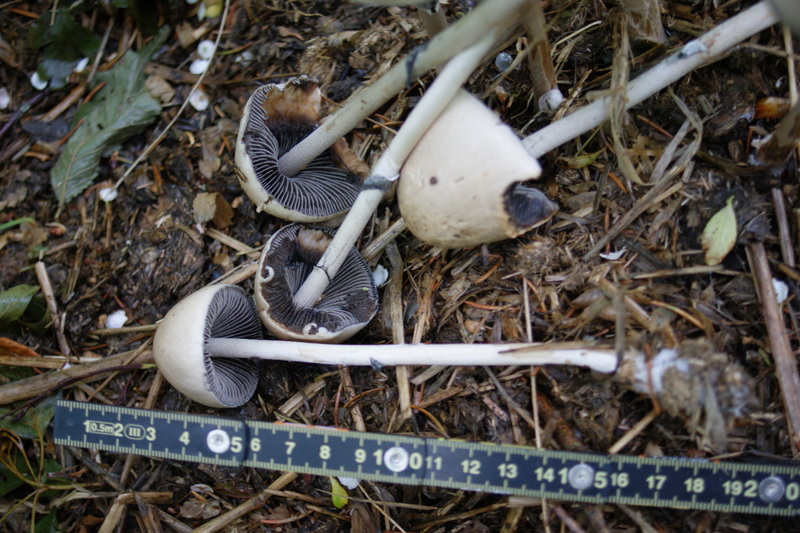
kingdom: Fungi
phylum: Basidiomycota
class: Agaricomycetes
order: Agaricales
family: Bolbitiaceae
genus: Panaeolus
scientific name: Panaeolus semiovatus
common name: ring-glanshat
